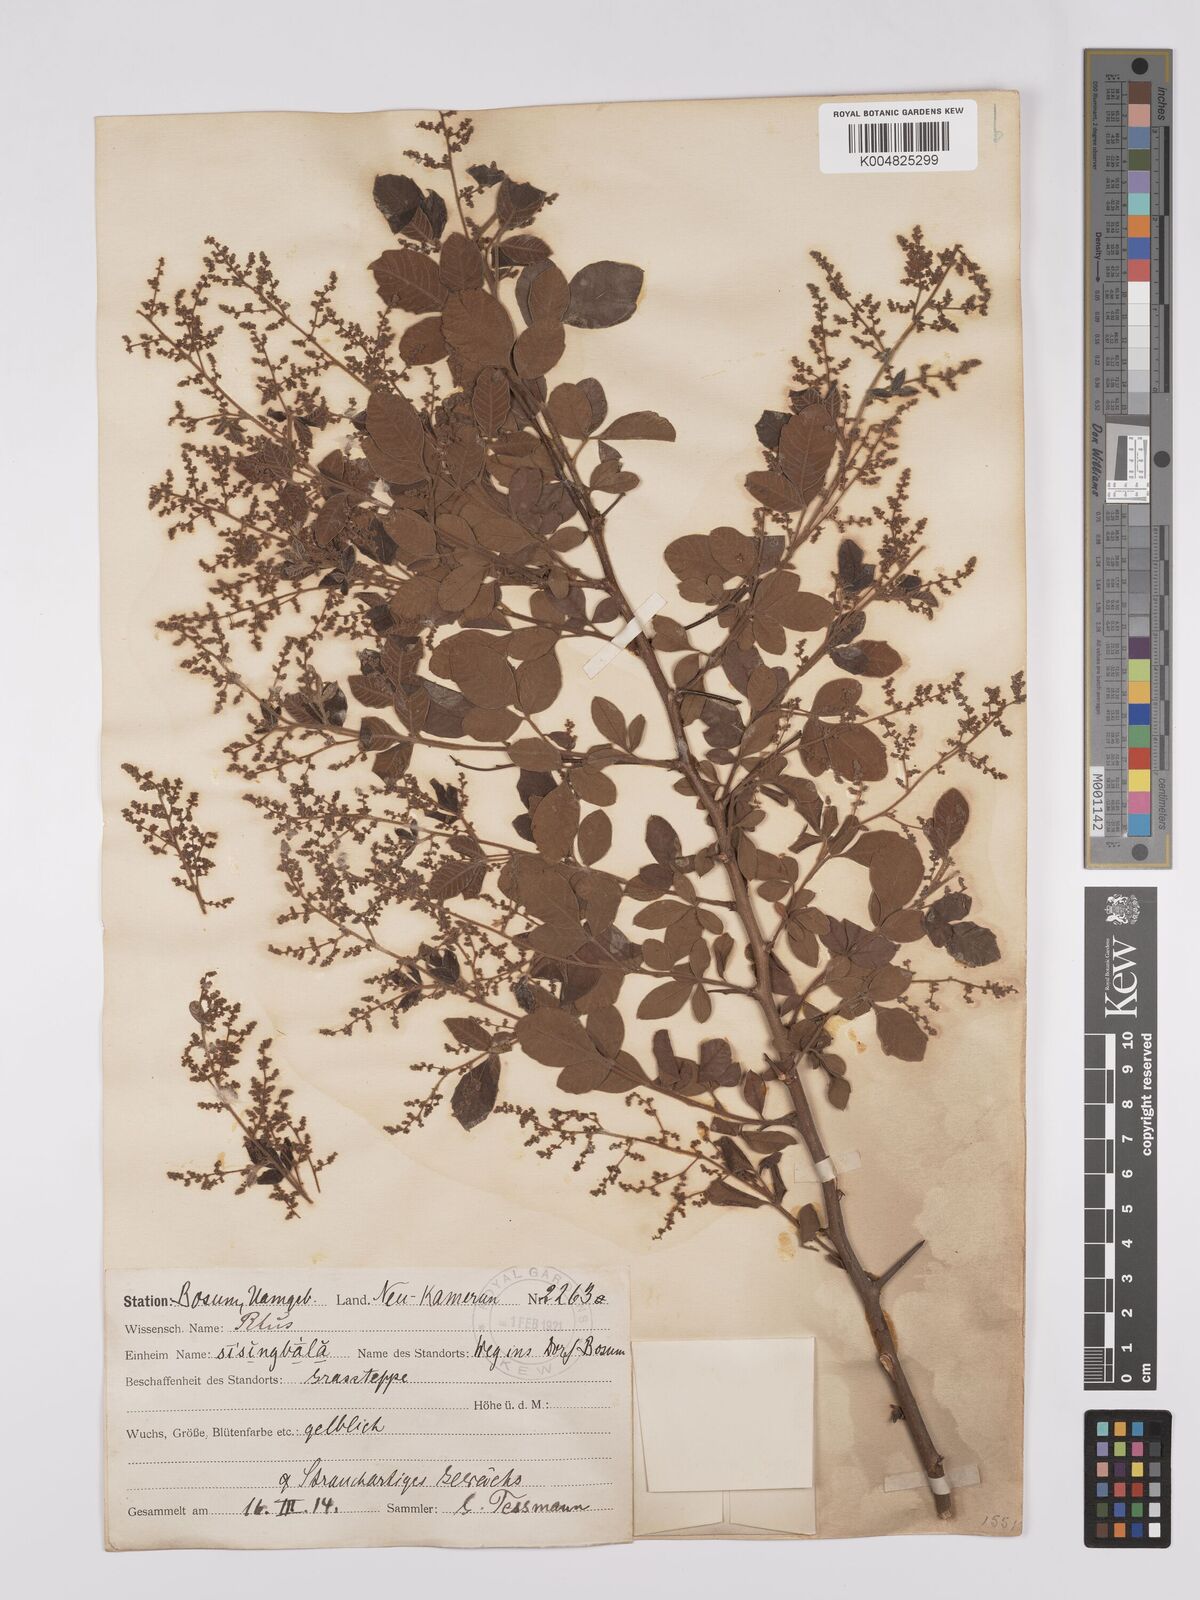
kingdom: Plantae
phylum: Tracheophyta
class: Magnoliopsida
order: Sapindales
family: Anacardiaceae
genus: Searsia
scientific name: Searsia pyroides
